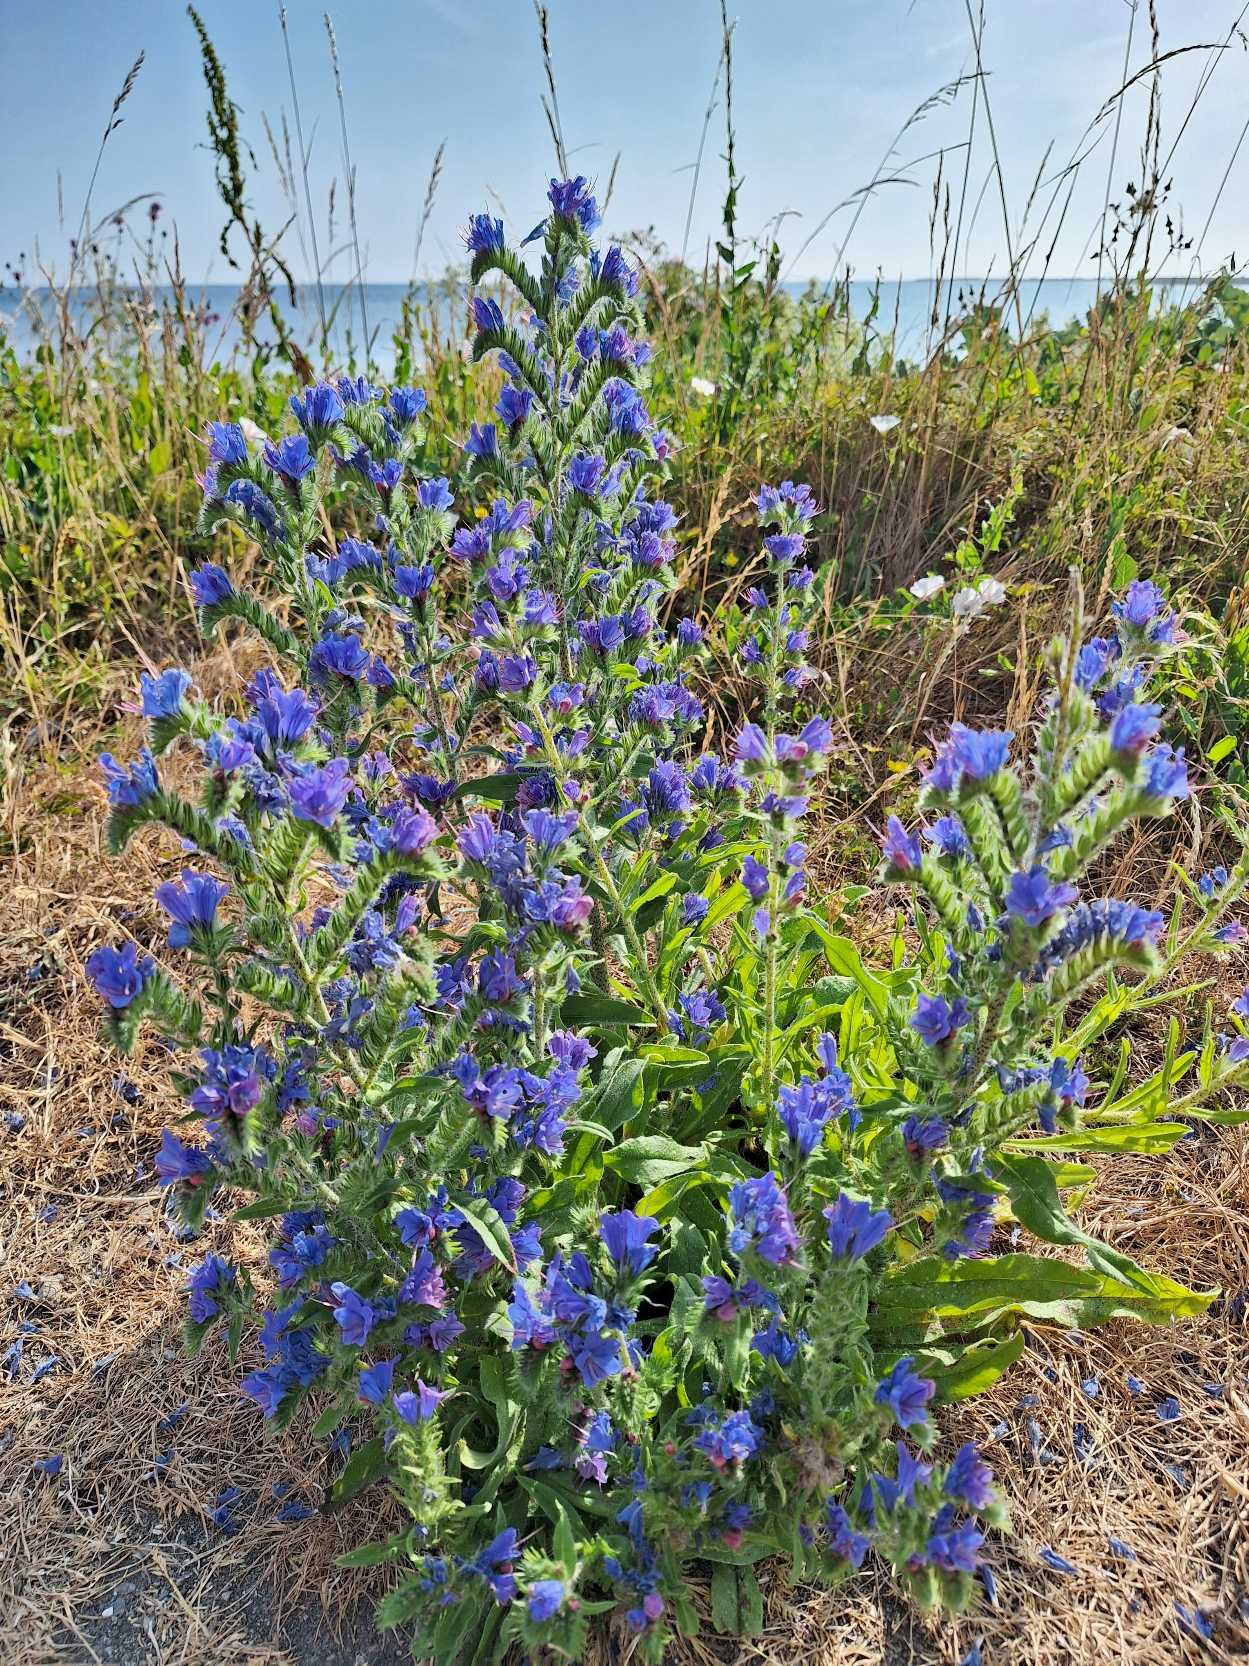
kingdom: Plantae
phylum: Tracheophyta
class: Magnoliopsida
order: Boraginales
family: Boraginaceae
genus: Echium
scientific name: Echium vulgare
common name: Slangehoved
